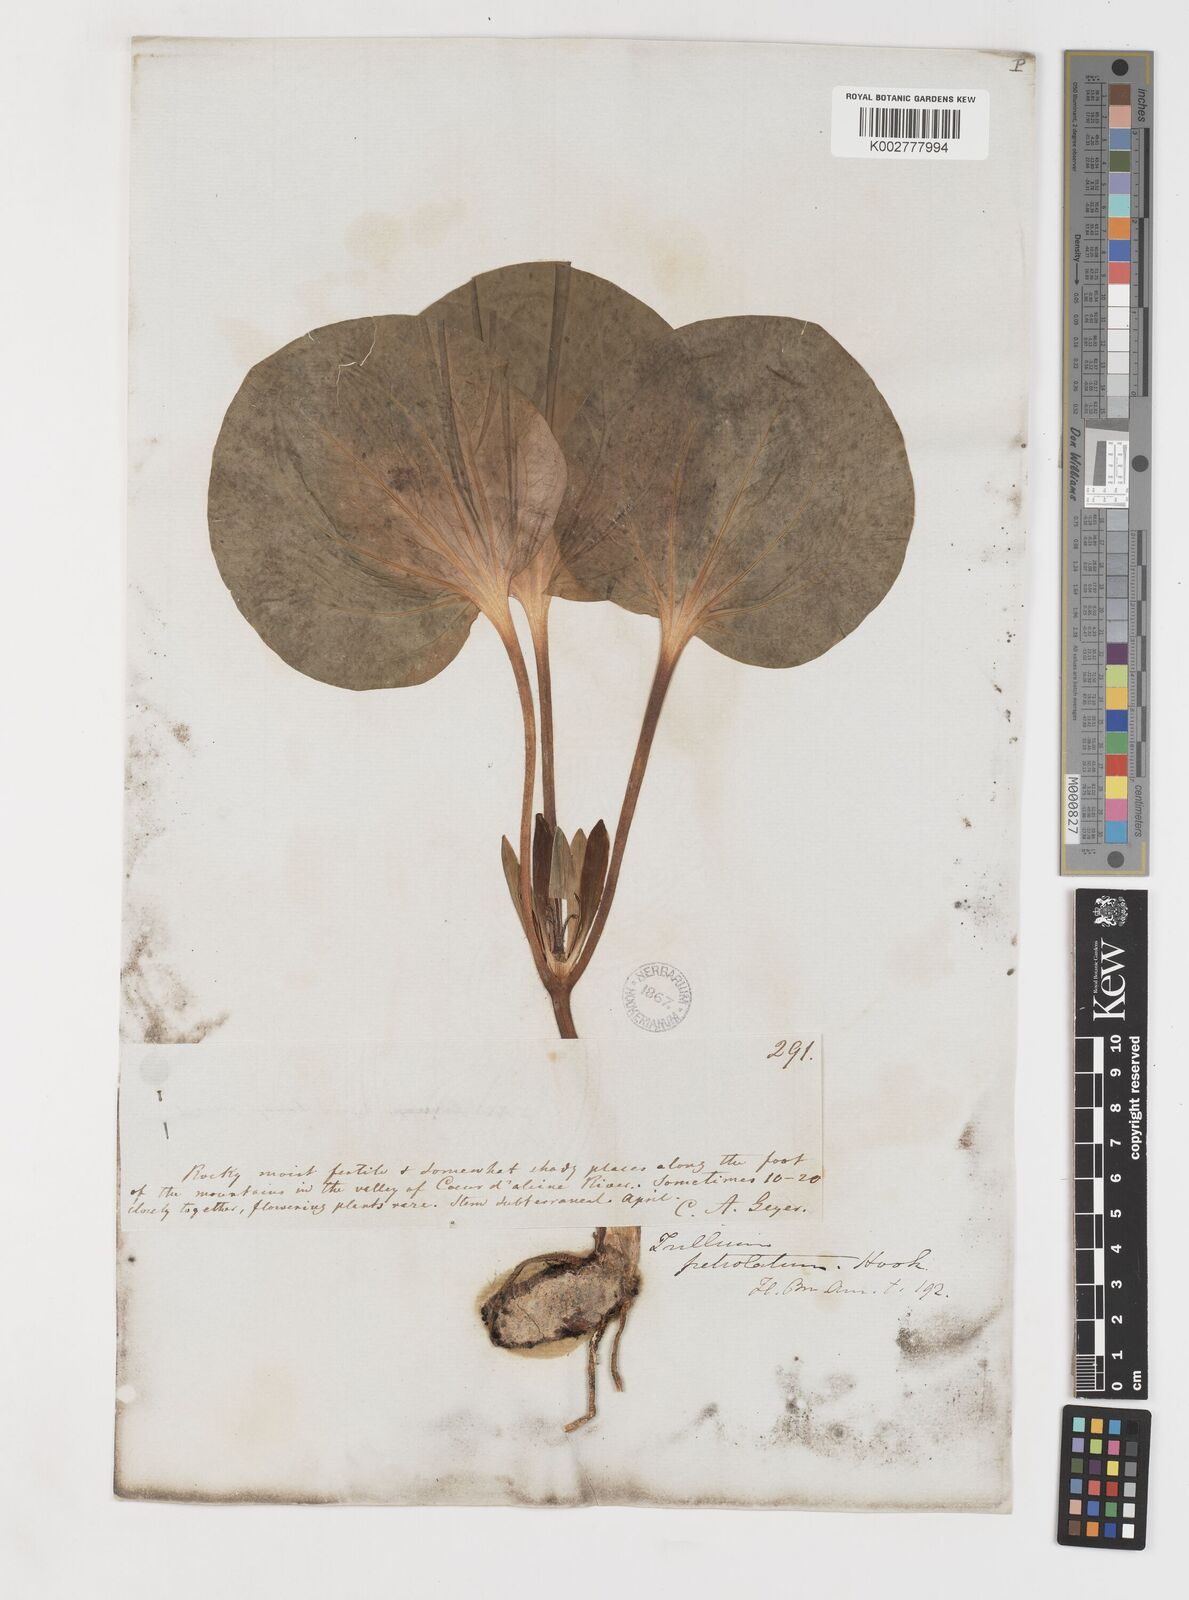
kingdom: Plantae
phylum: Tracheophyta
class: Liliopsida
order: Liliales
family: Melanthiaceae
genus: Trillium
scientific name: Trillium petiolatum
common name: Idaho trillium
